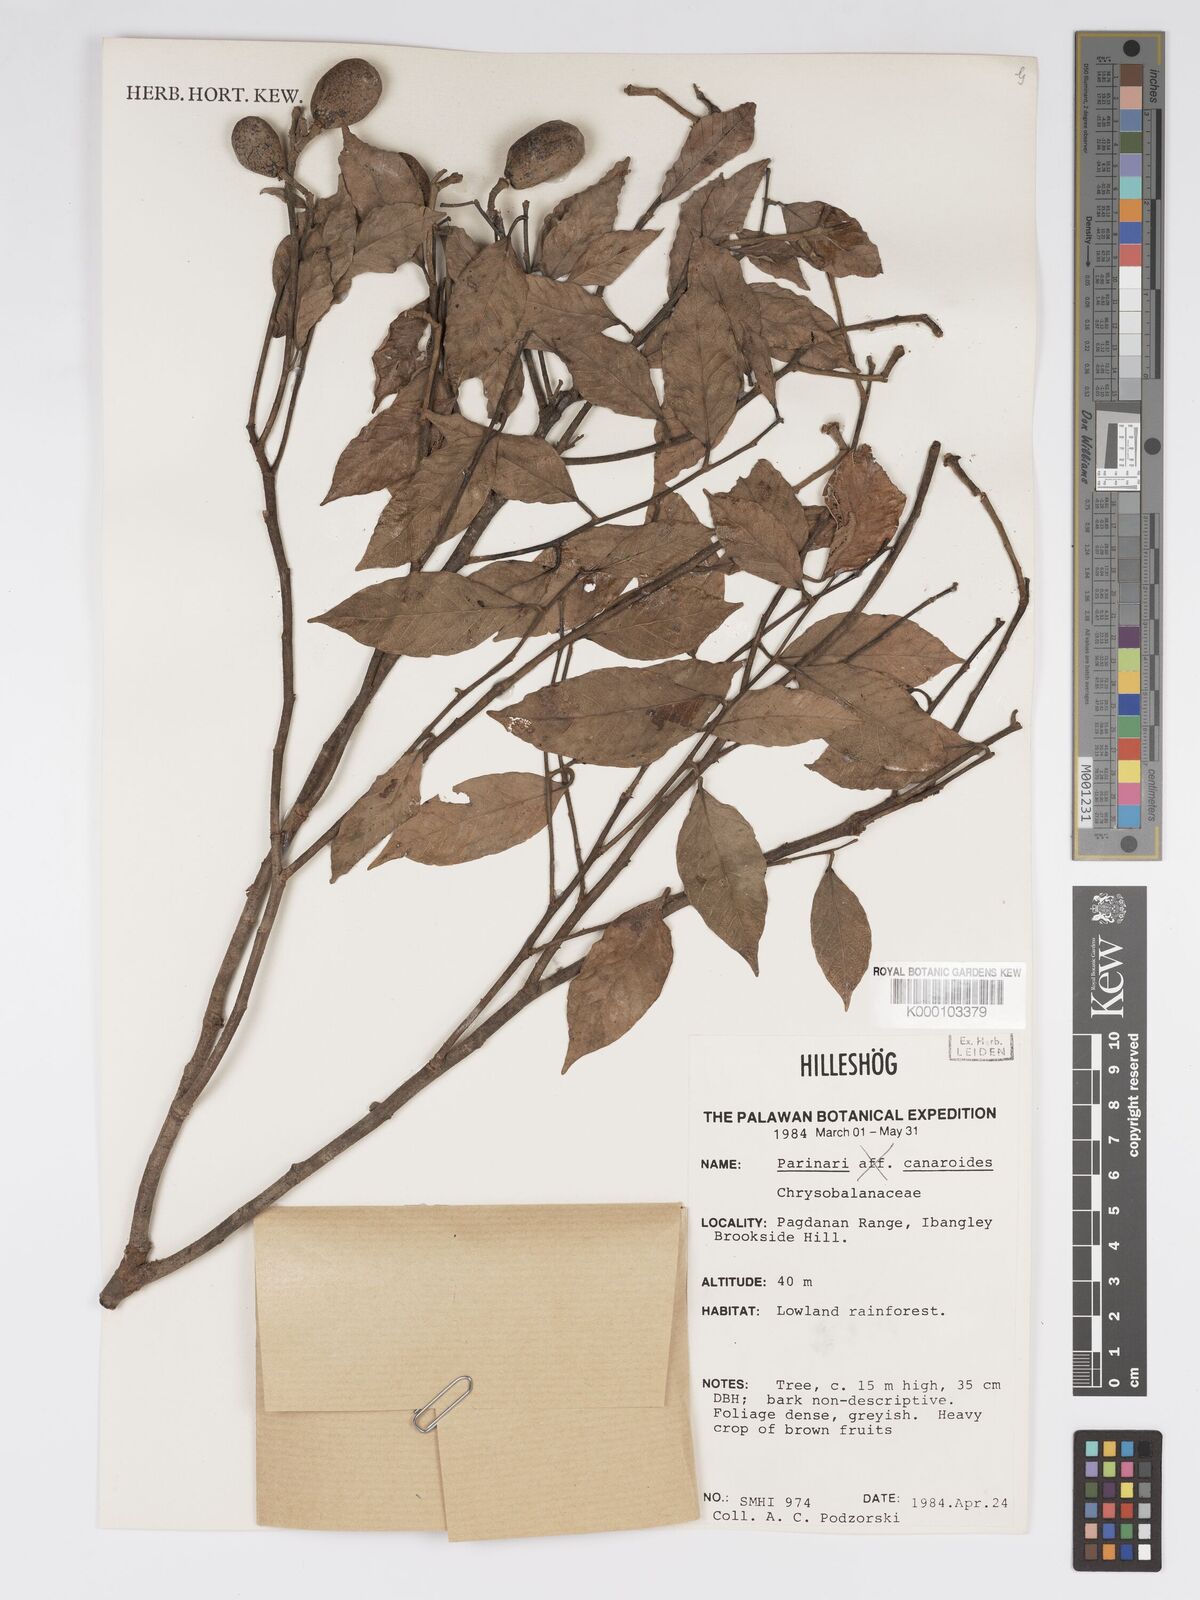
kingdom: Plantae
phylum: Tracheophyta
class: Magnoliopsida
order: Malpighiales
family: Chrysobalanaceae
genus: Parinari
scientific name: Parinari canarioides
